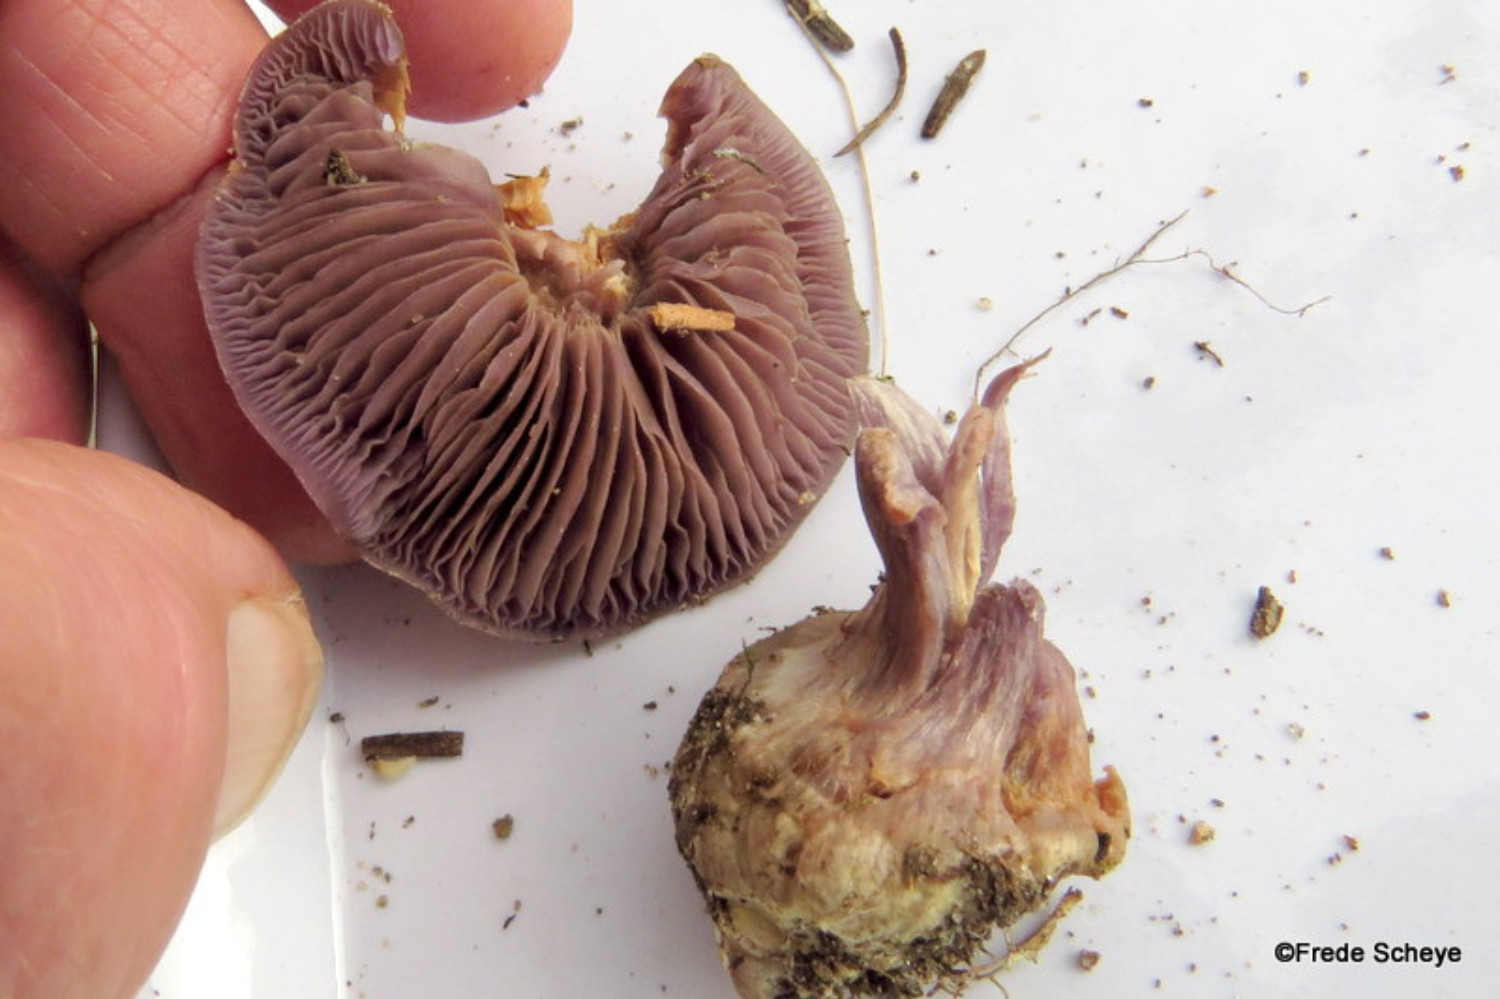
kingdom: Fungi
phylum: Basidiomycota
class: Agaricomycetes
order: Agaricales
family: Cortinariaceae
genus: Thaxterogaster
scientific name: Thaxterogaster sphagnophilus
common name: vandplettet slørhat
